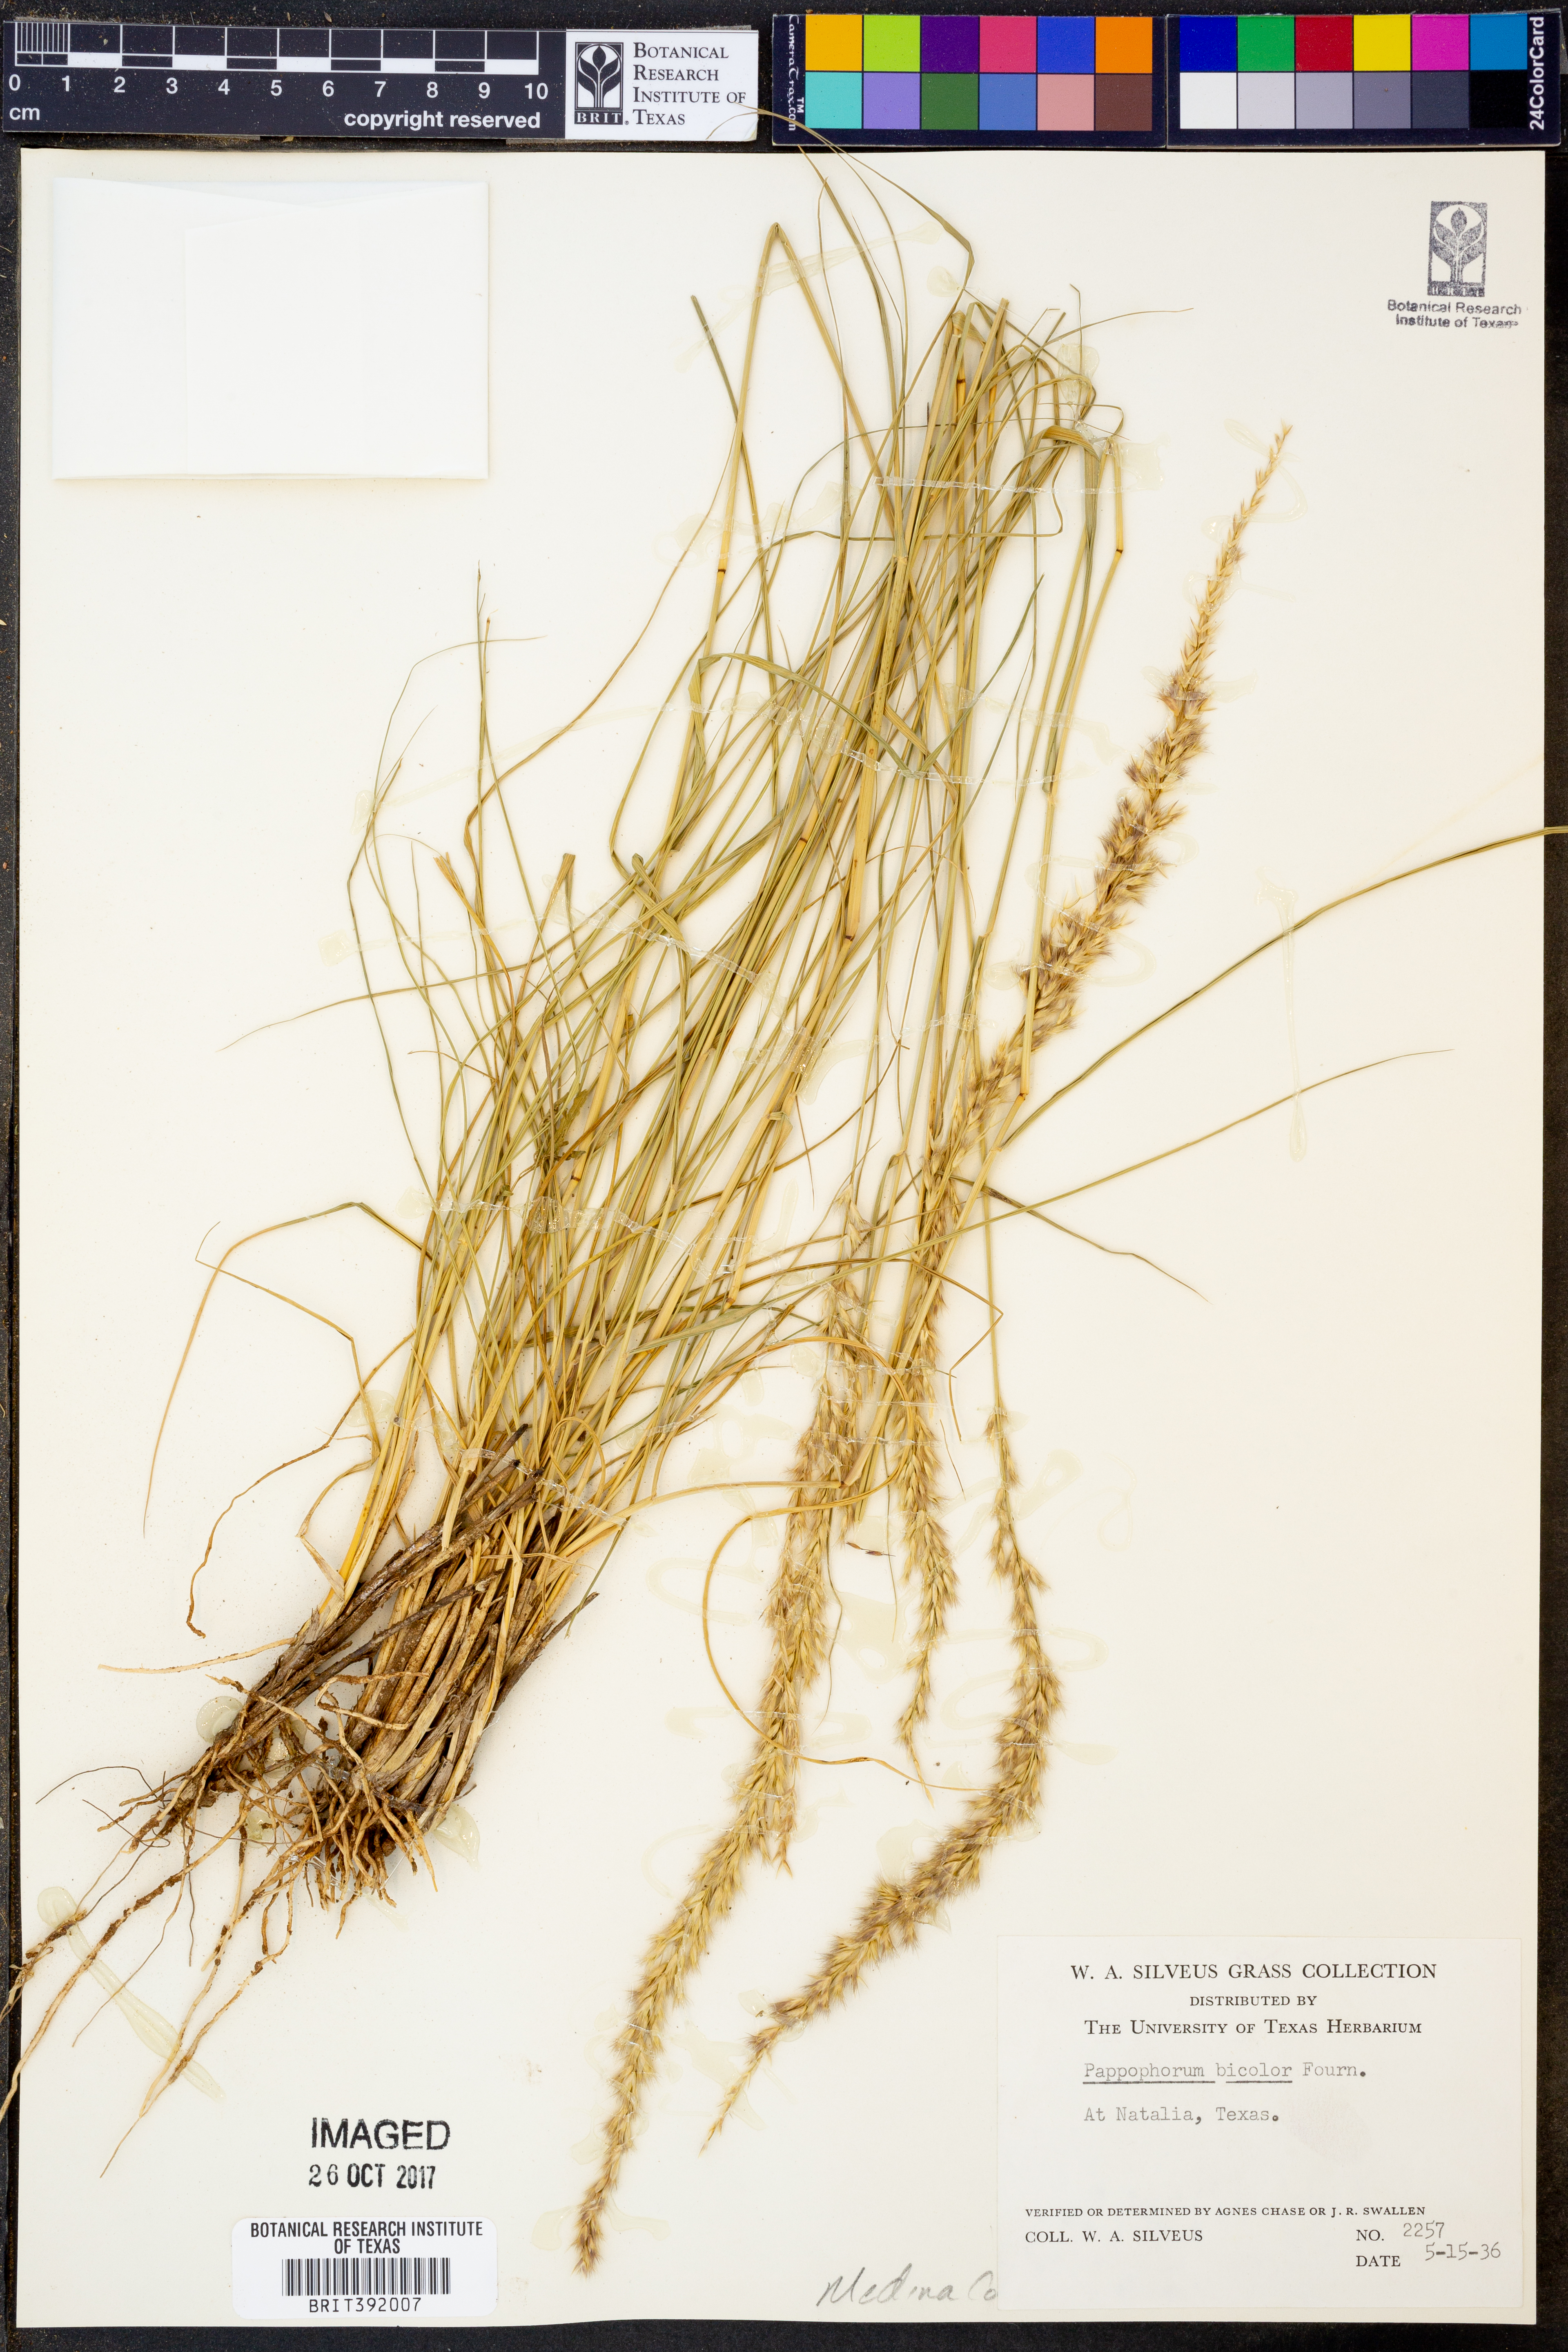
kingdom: Plantae
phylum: Tracheophyta
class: Liliopsida
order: Poales
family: Poaceae
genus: Pappophorum
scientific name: Pappophorum bicolor
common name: Pink pappus grass
